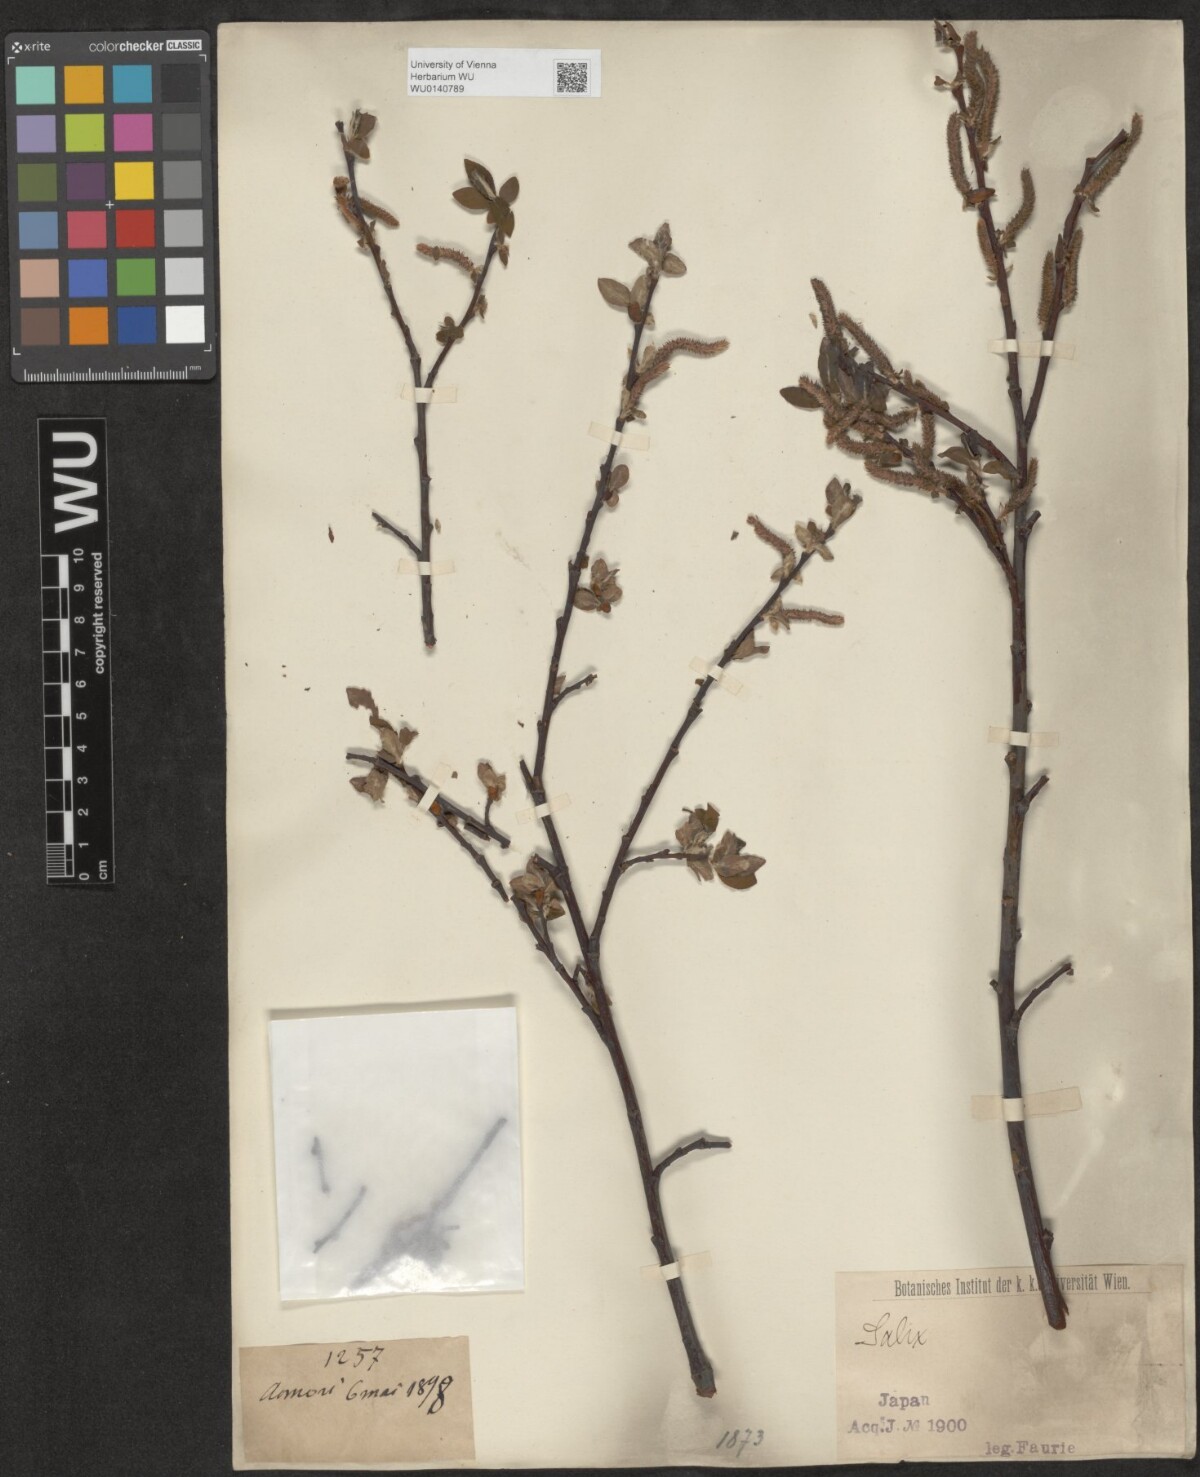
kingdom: Plantae
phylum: Tracheophyta
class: Magnoliopsida
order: Malpighiales
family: Salicaceae
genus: Salix
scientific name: Salix
